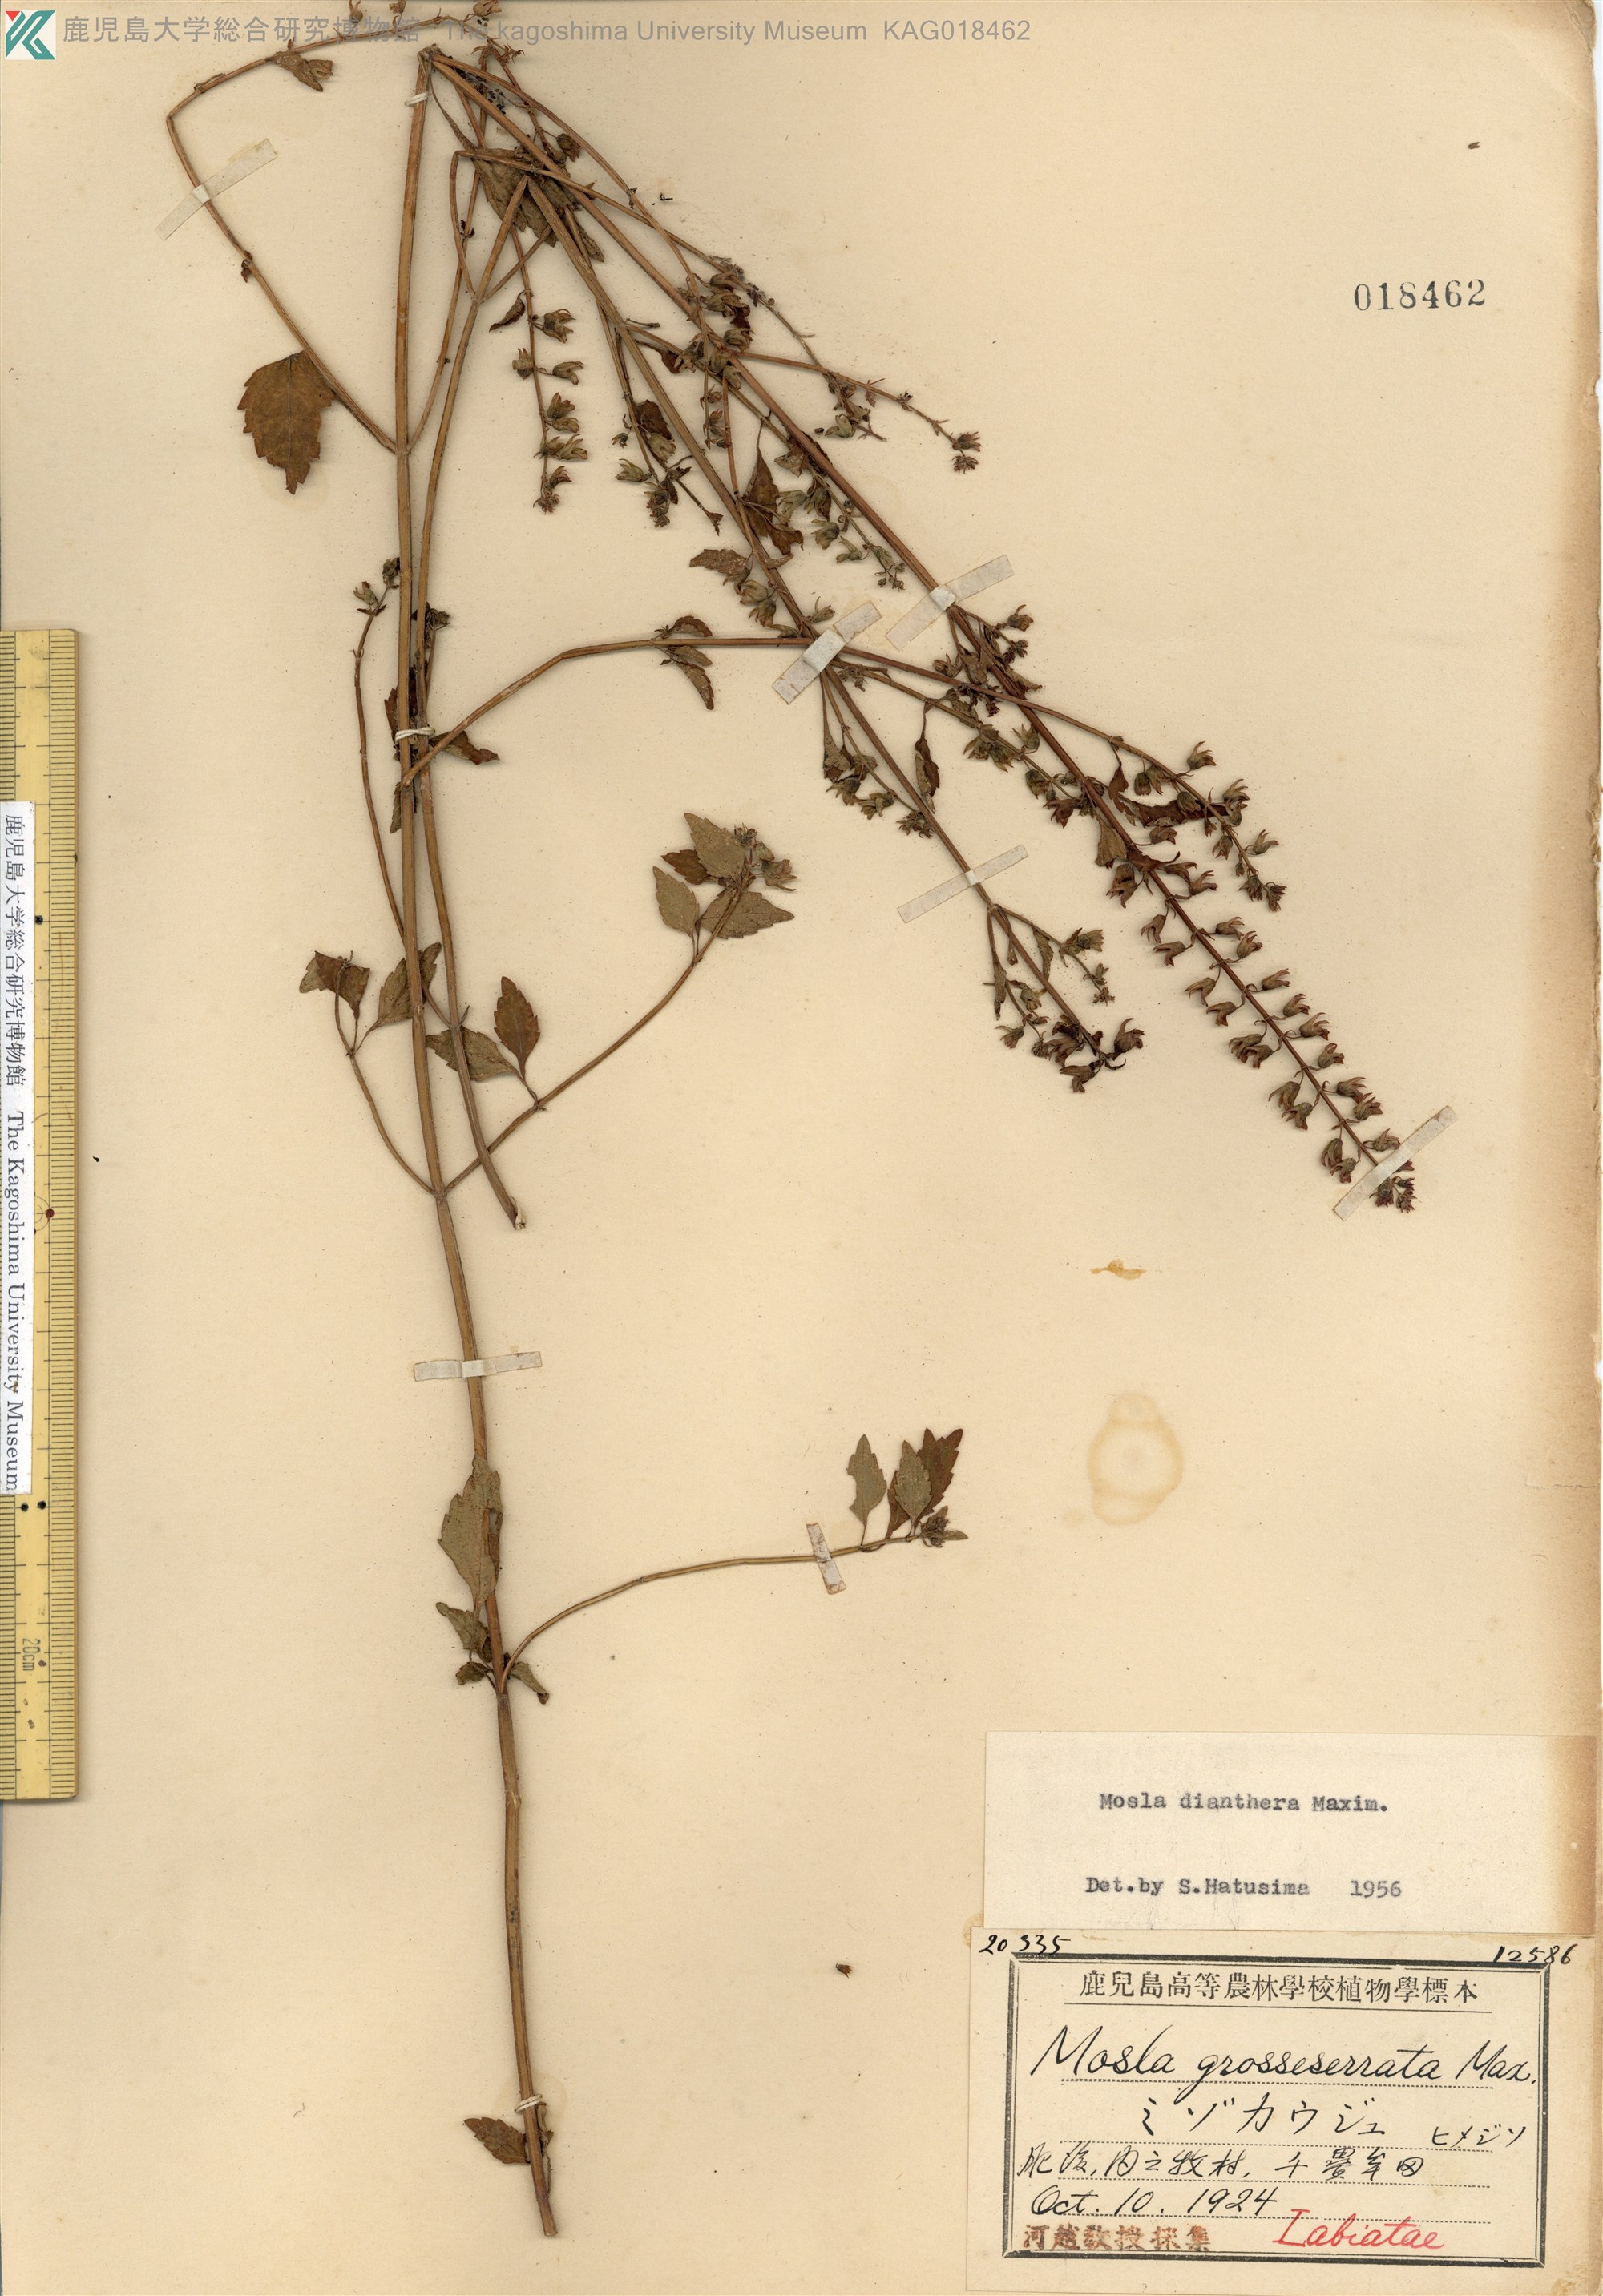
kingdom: Plantae
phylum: Tracheophyta
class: Magnoliopsida
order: Lamiales
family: Lamiaceae
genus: Mosla
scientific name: Mosla dianthera
